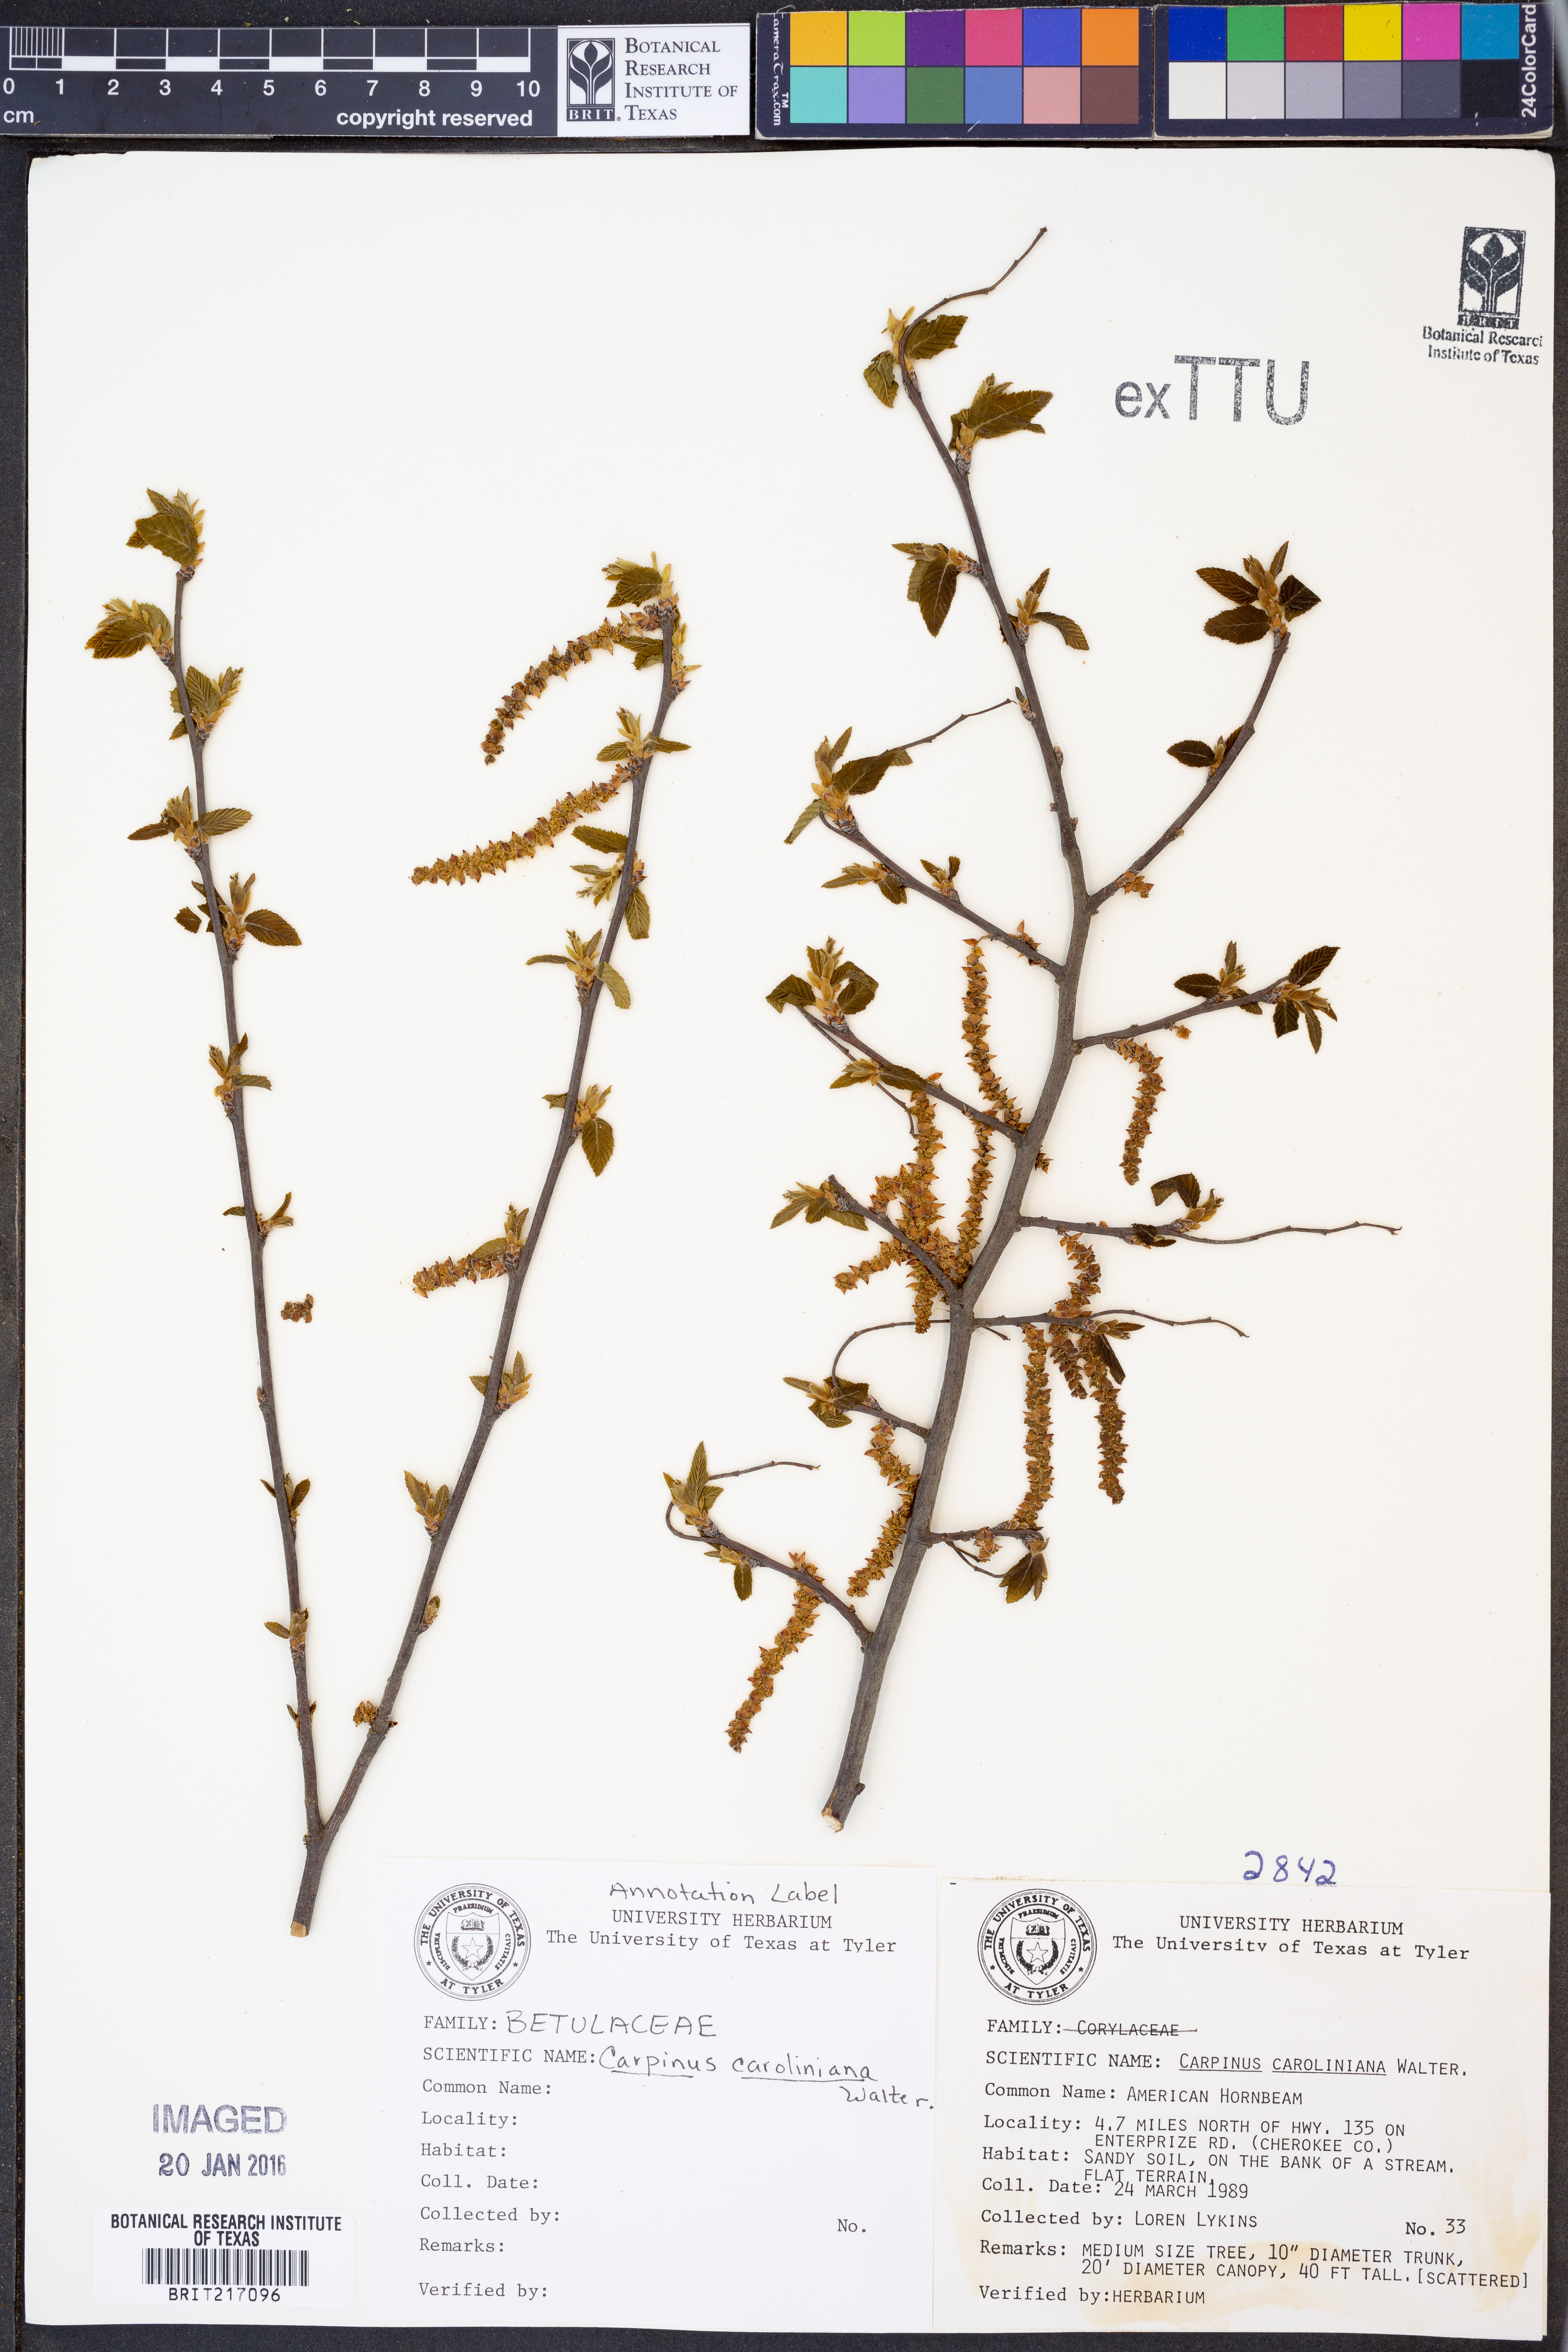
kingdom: Plantae
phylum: Tracheophyta
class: Magnoliopsida
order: Fagales
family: Betulaceae
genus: Carpinus
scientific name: Carpinus caroliniana
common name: American hornbeam
